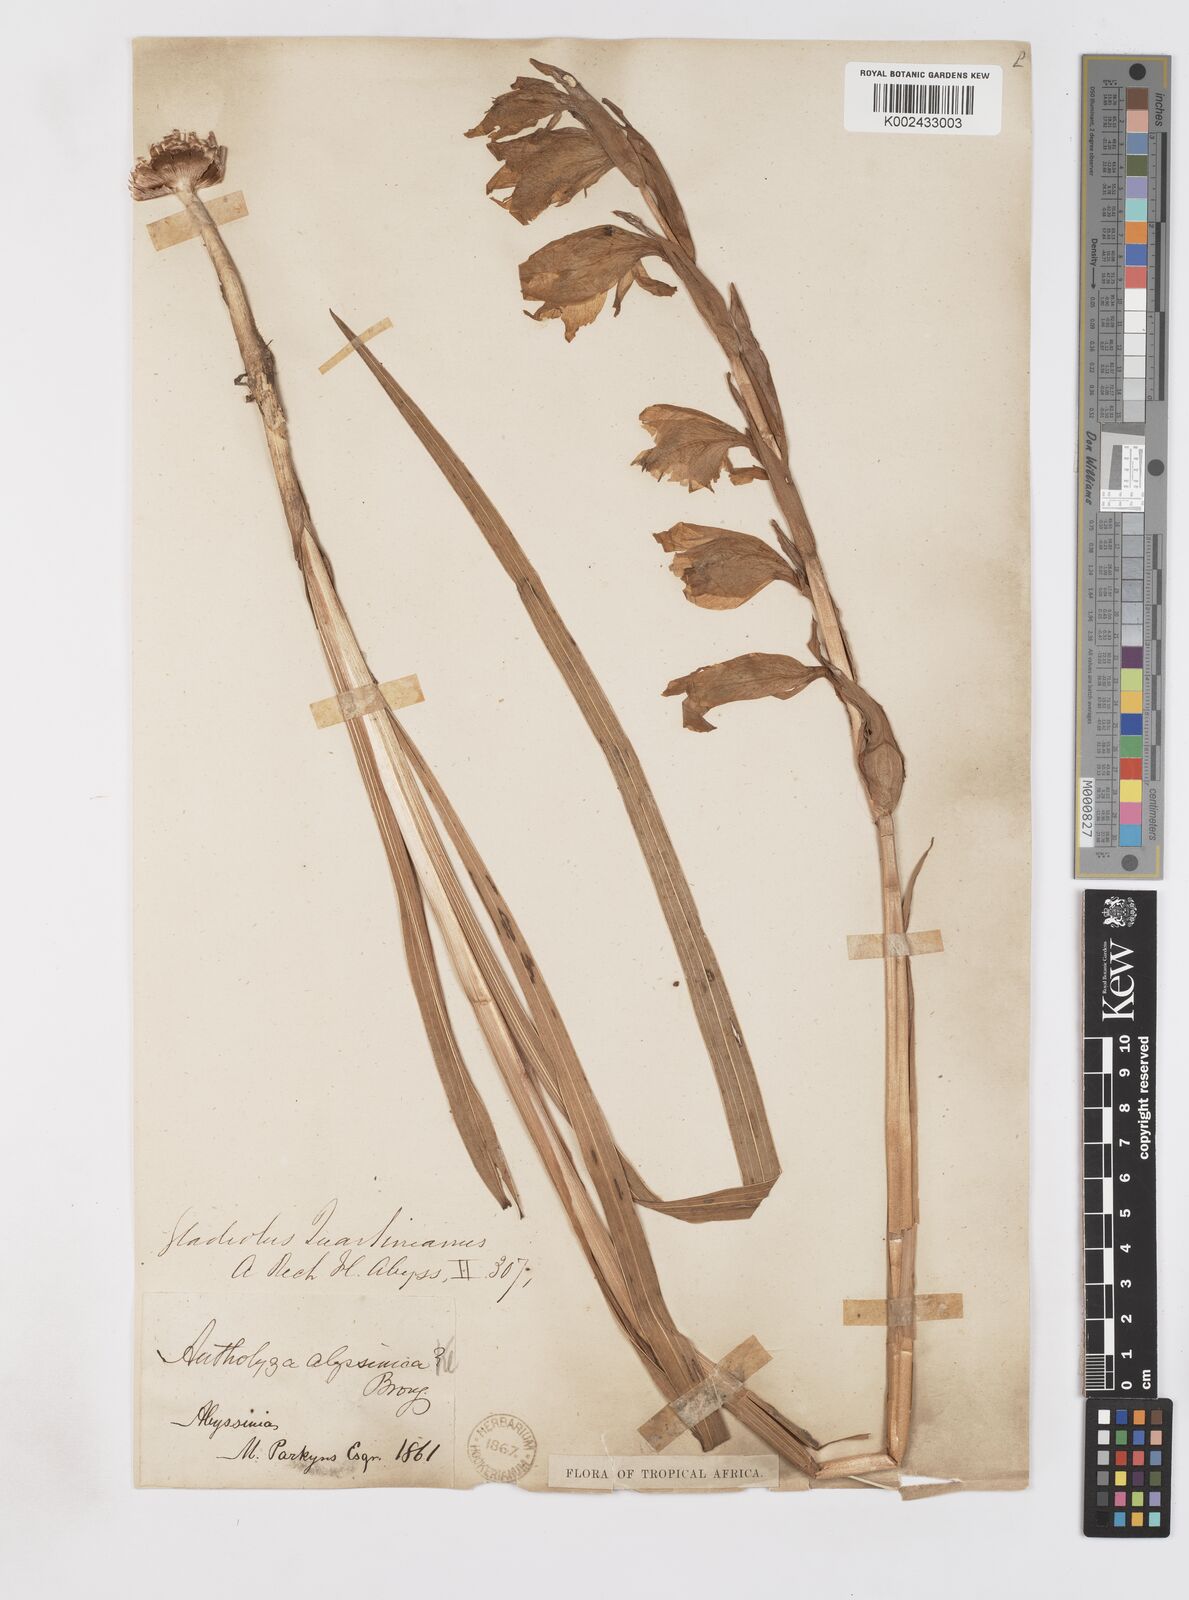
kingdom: Plantae
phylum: Tracheophyta
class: Liliopsida
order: Asparagales
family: Iridaceae
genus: Gladiolus
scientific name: Gladiolus dalenii
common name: Cornflag
